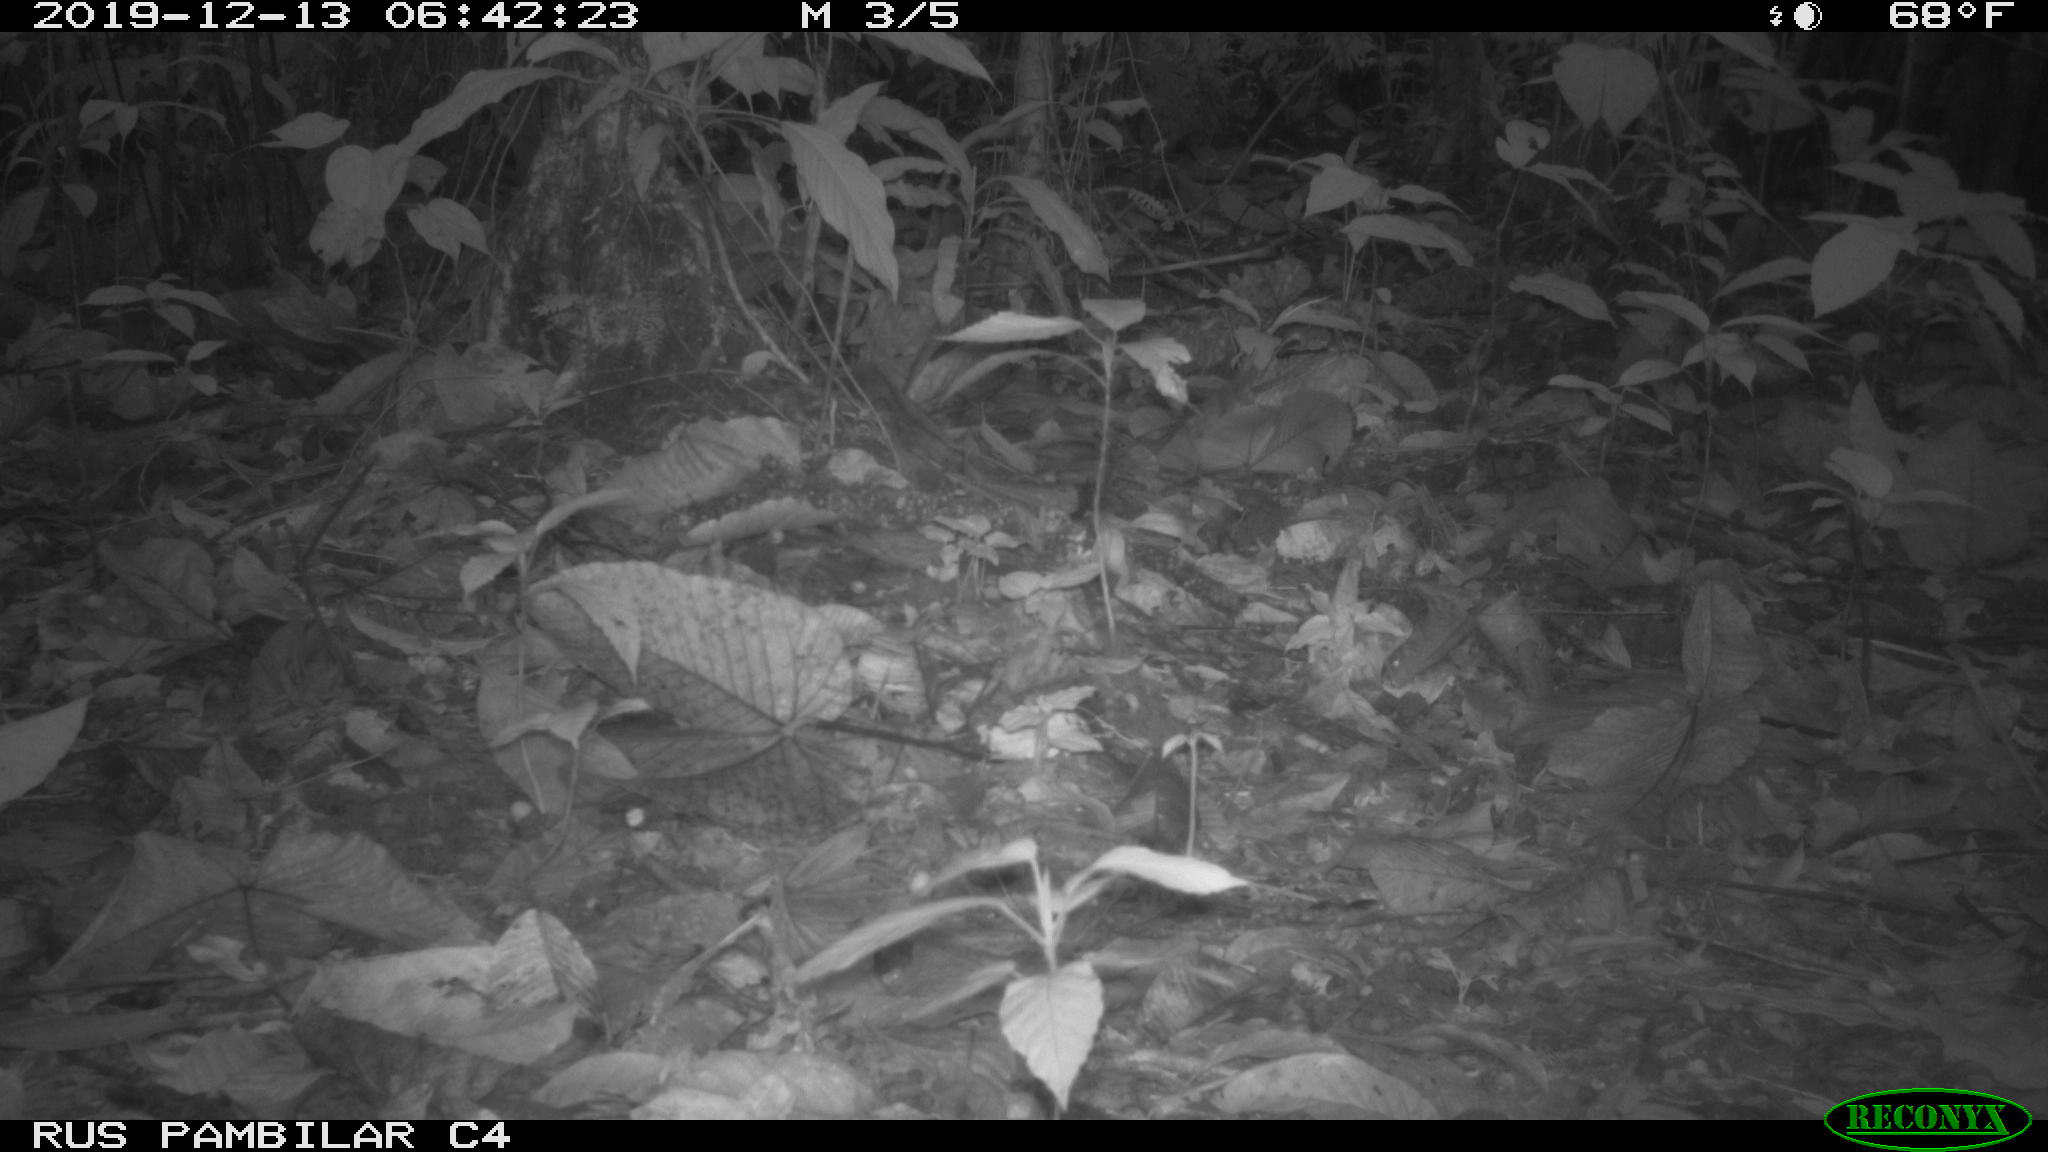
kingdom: Animalia
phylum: Chordata
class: Mammalia
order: Rodentia
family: Dasyproctidae
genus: Dasyprocta
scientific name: Dasyprocta punctata
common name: Central american agouti
